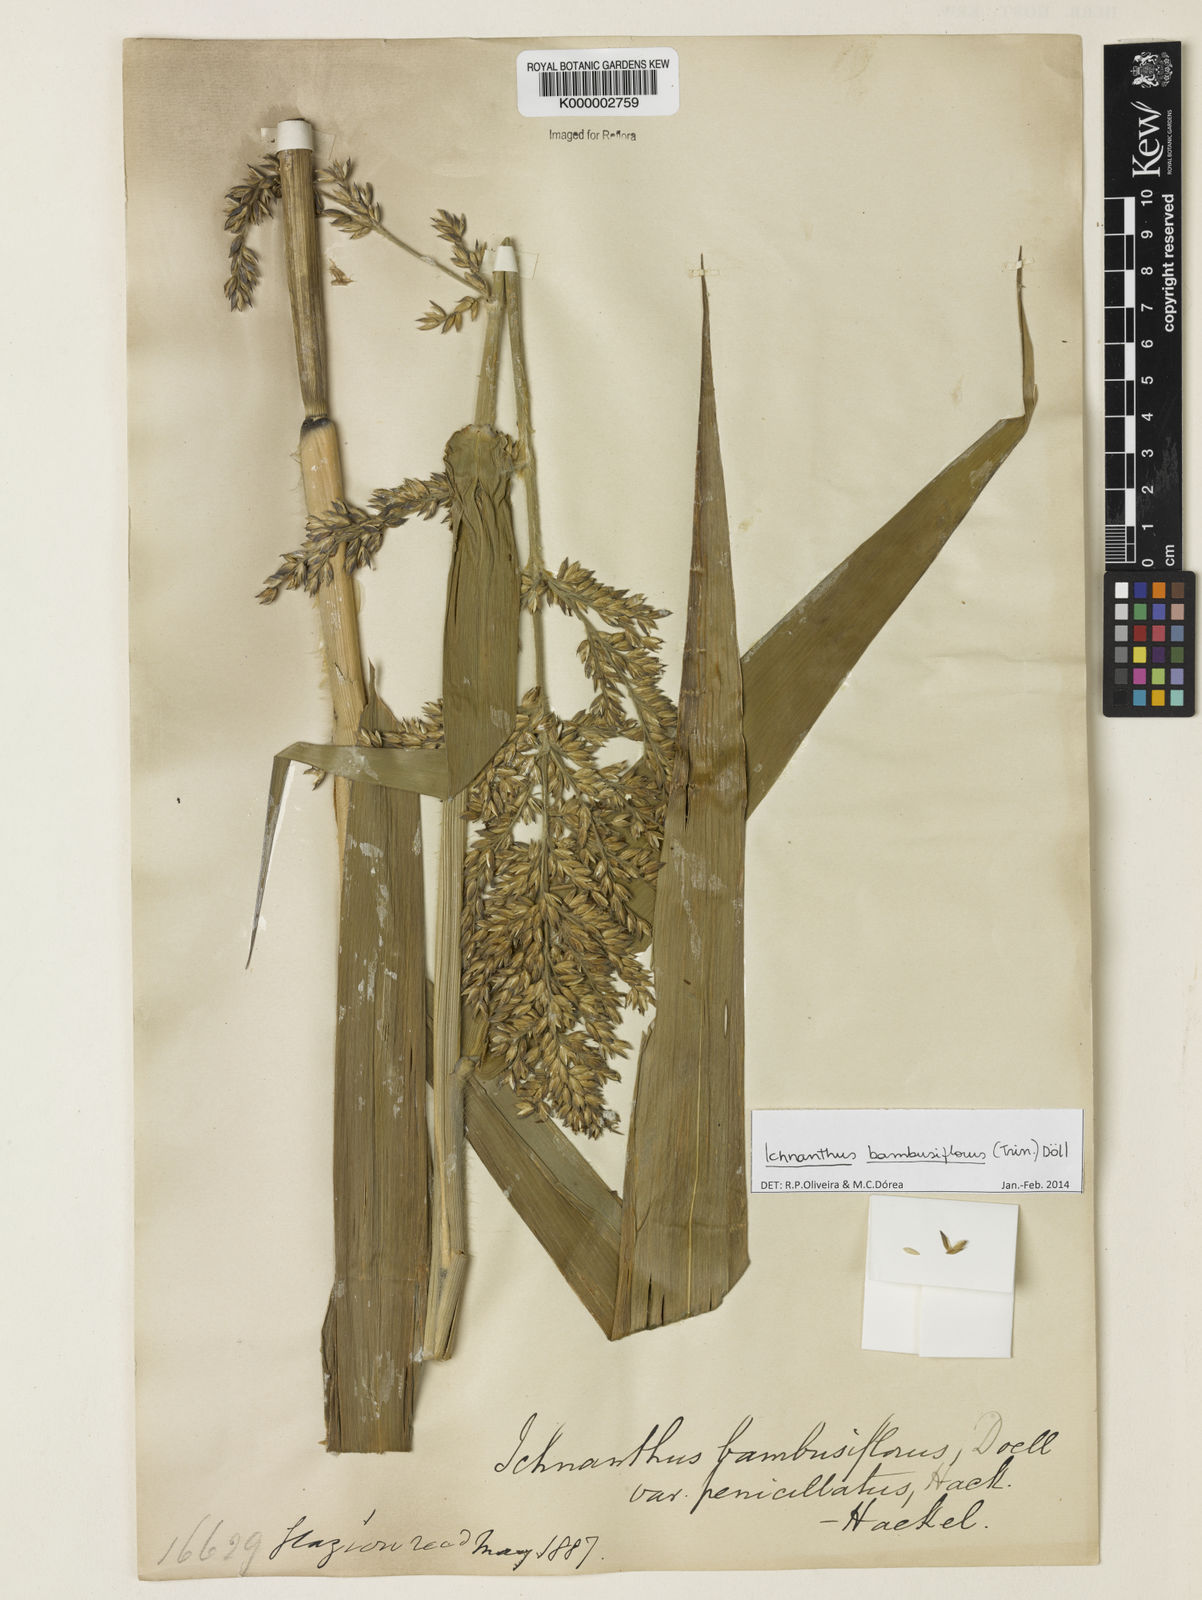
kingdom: Plantae
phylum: Tracheophyta
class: Liliopsida
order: Zingiberales
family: Cannaceae
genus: Canna
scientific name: Canna paniculata
